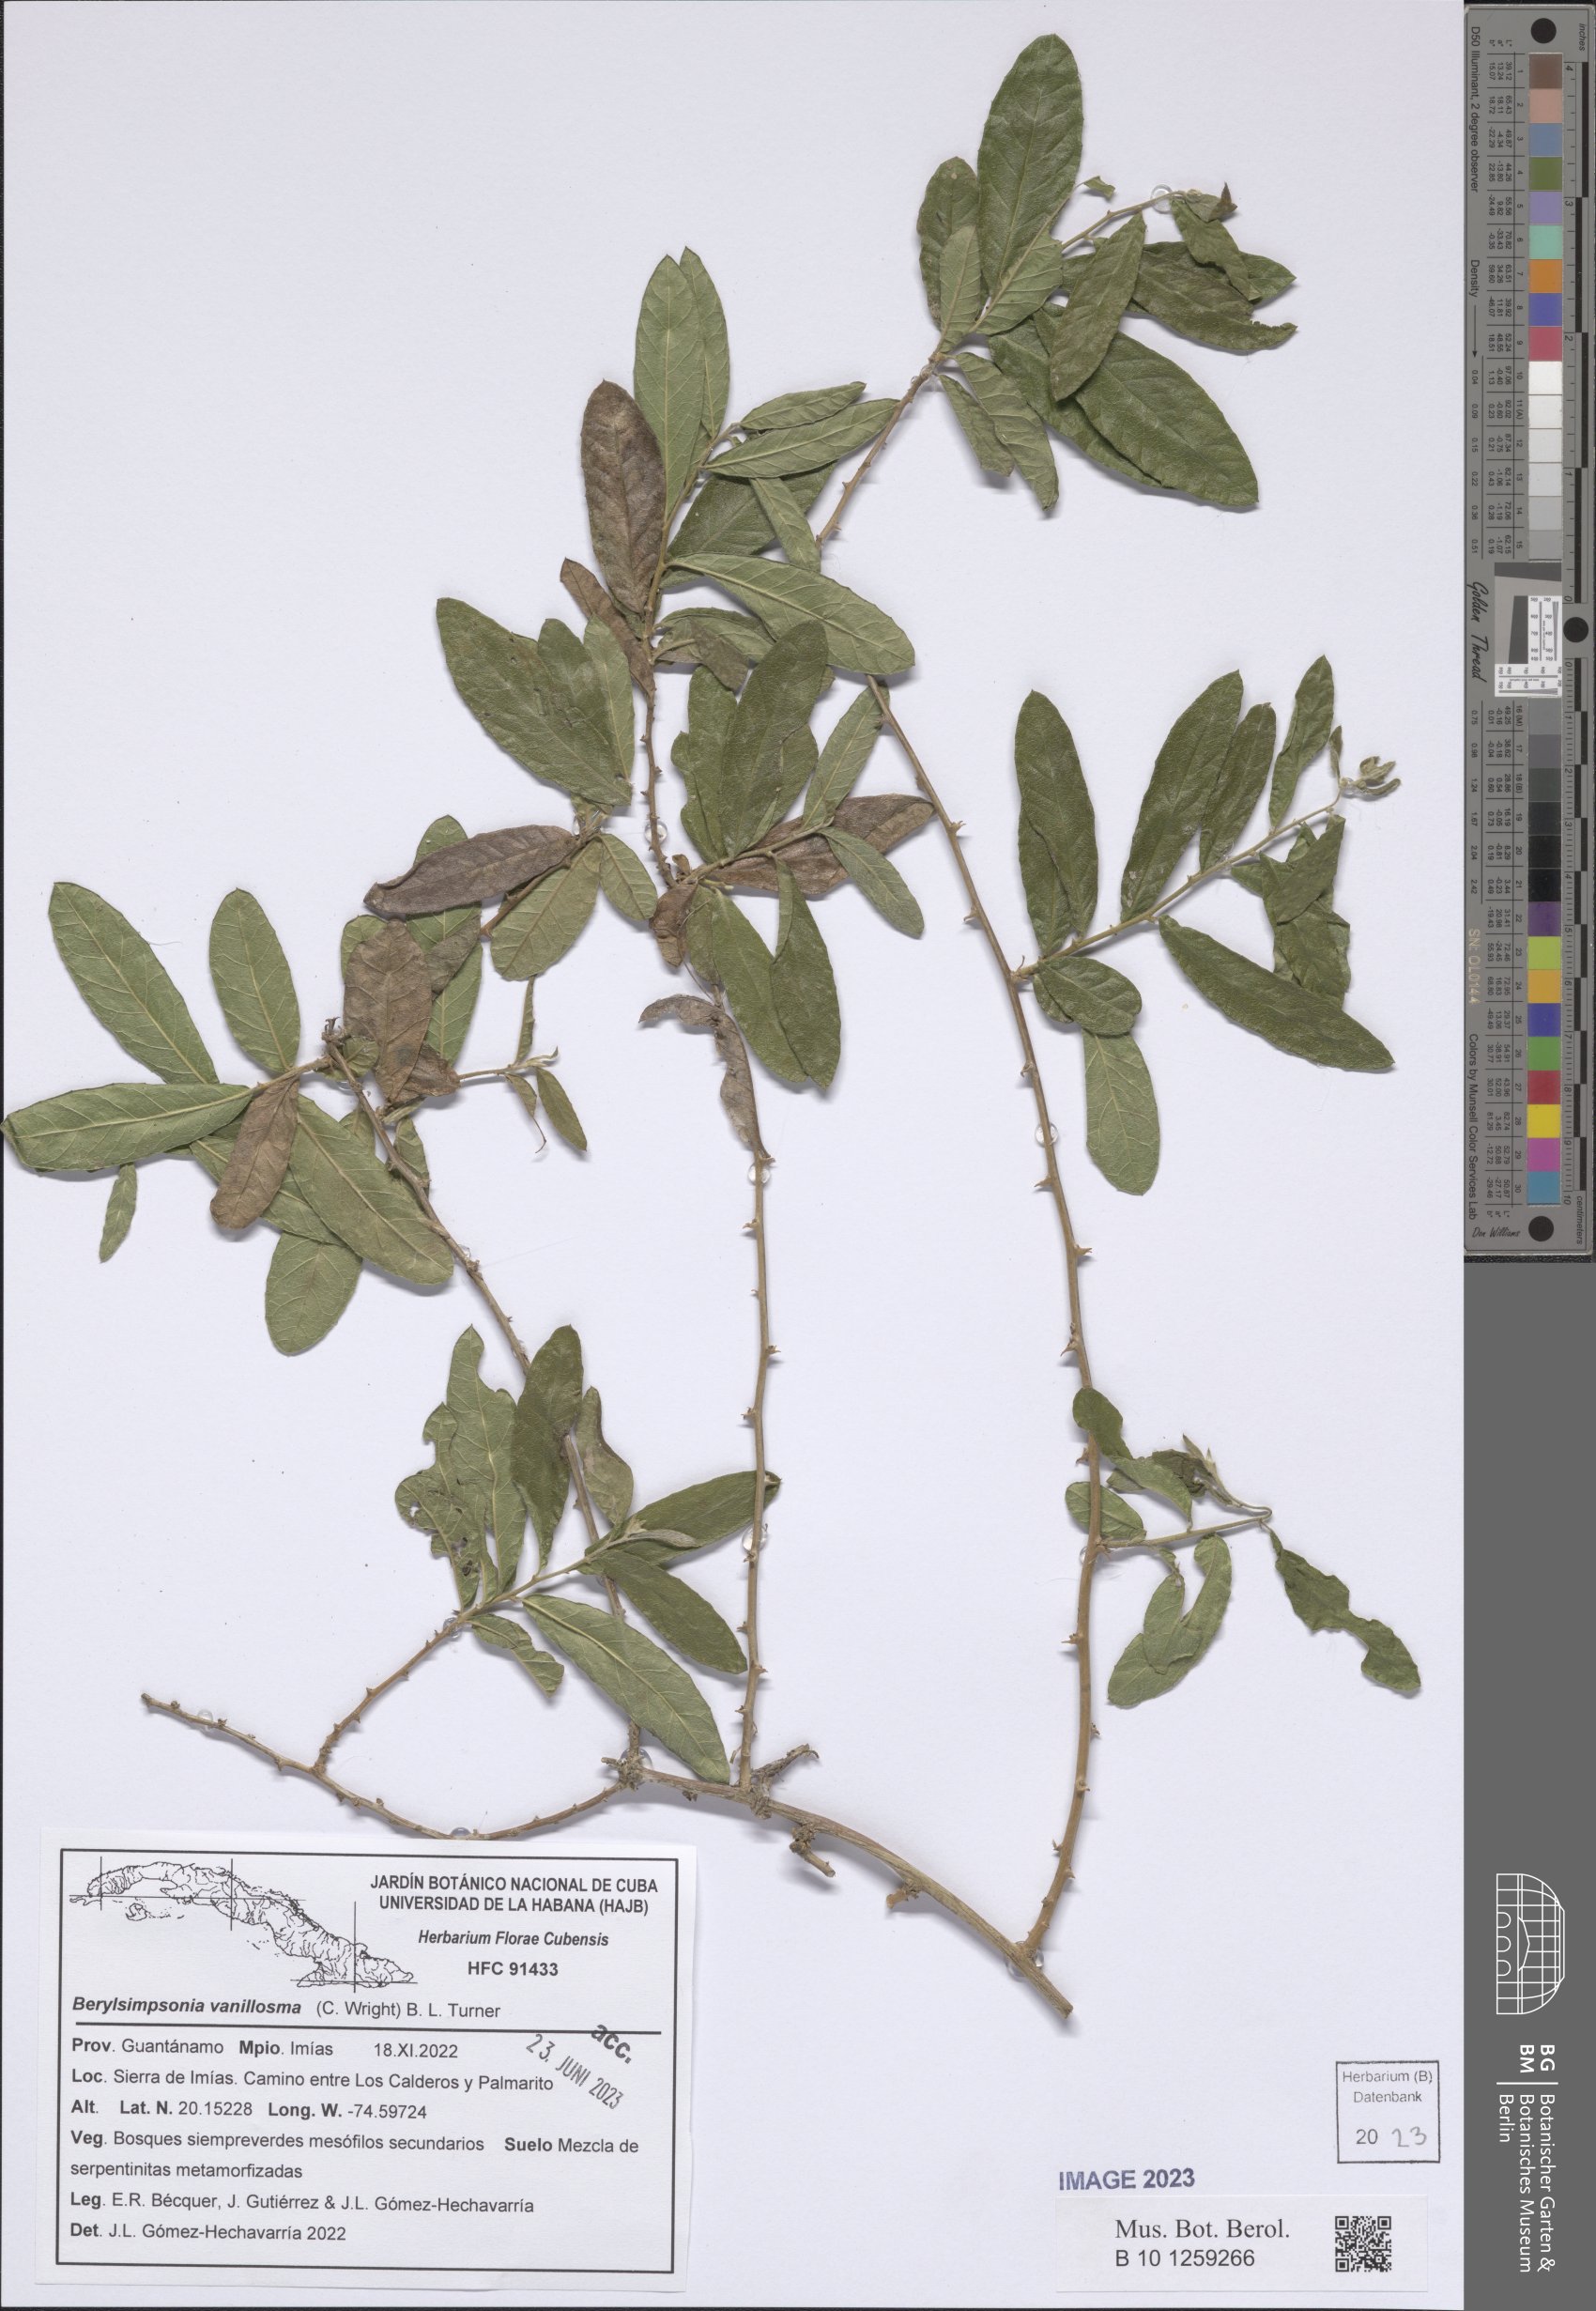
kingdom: Plantae
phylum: Tracheophyta
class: Magnoliopsida
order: Asterales
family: Asteraceae
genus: Berylsimpsonia
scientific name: Berylsimpsonia vanillosma
